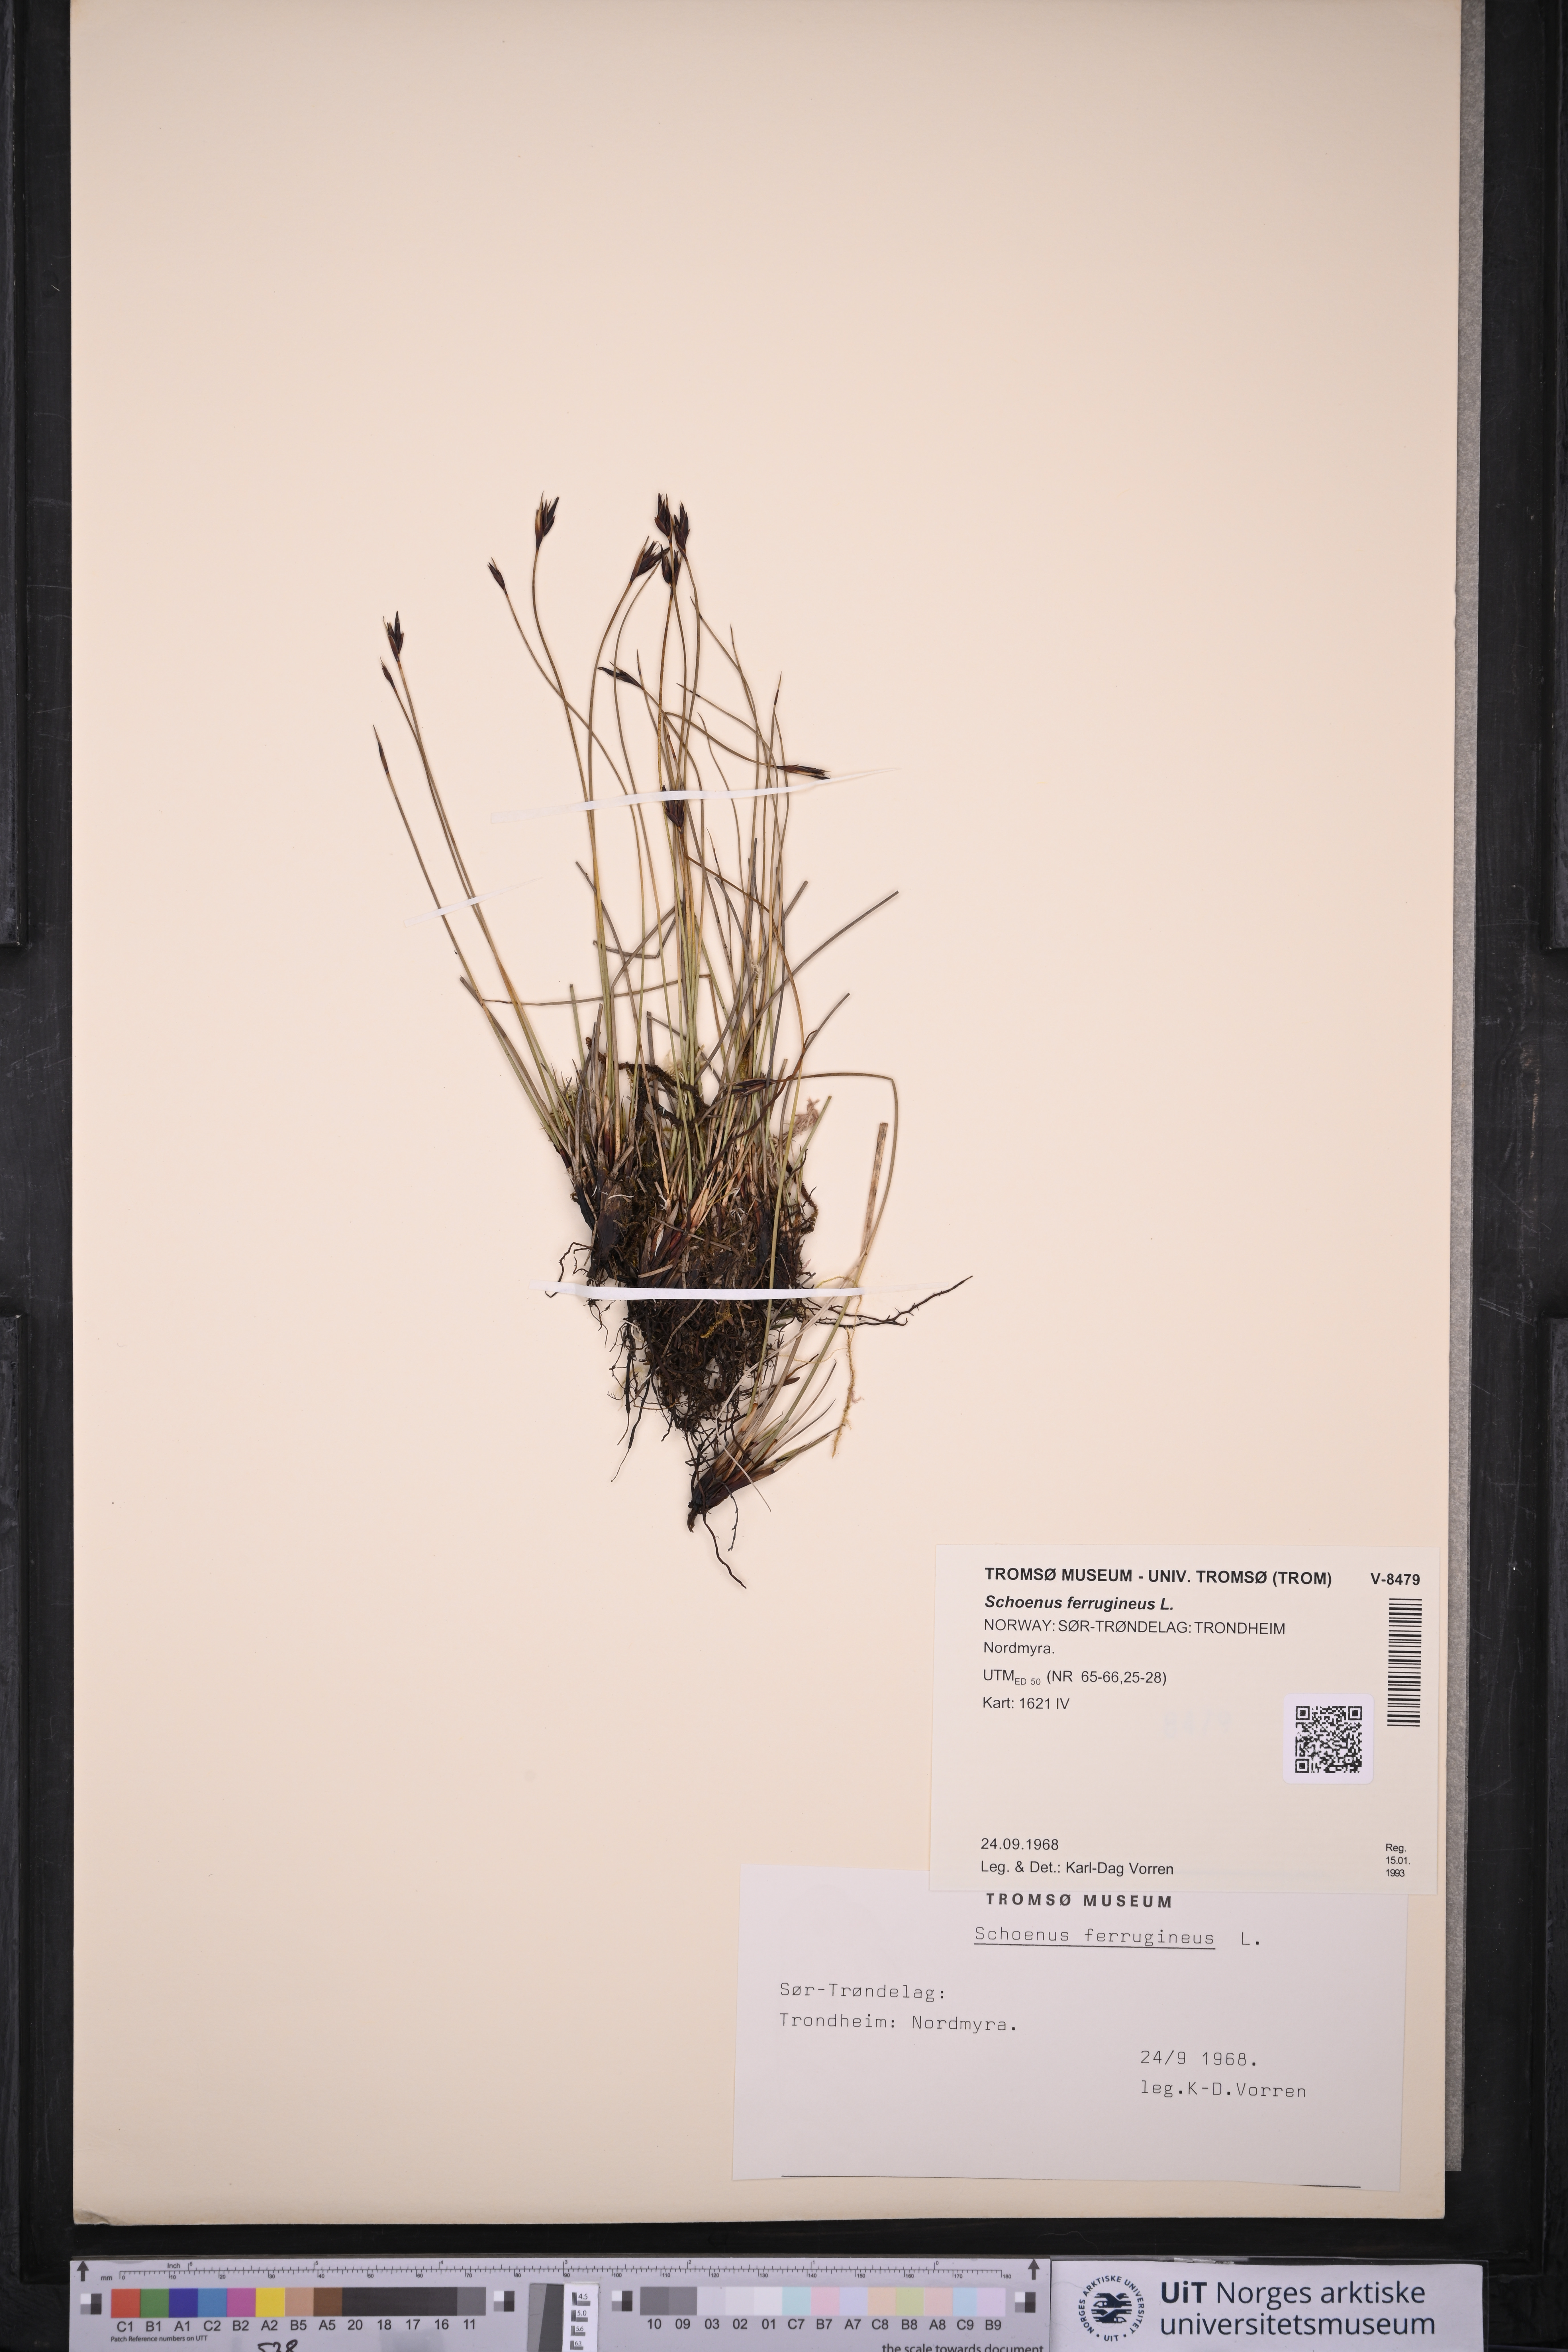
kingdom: Plantae
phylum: Tracheophyta
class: Liliopsida
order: Poales
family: Cyperaceae
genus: Schoenus
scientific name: Schoenus ferrugineus
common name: Brown bog-rush
